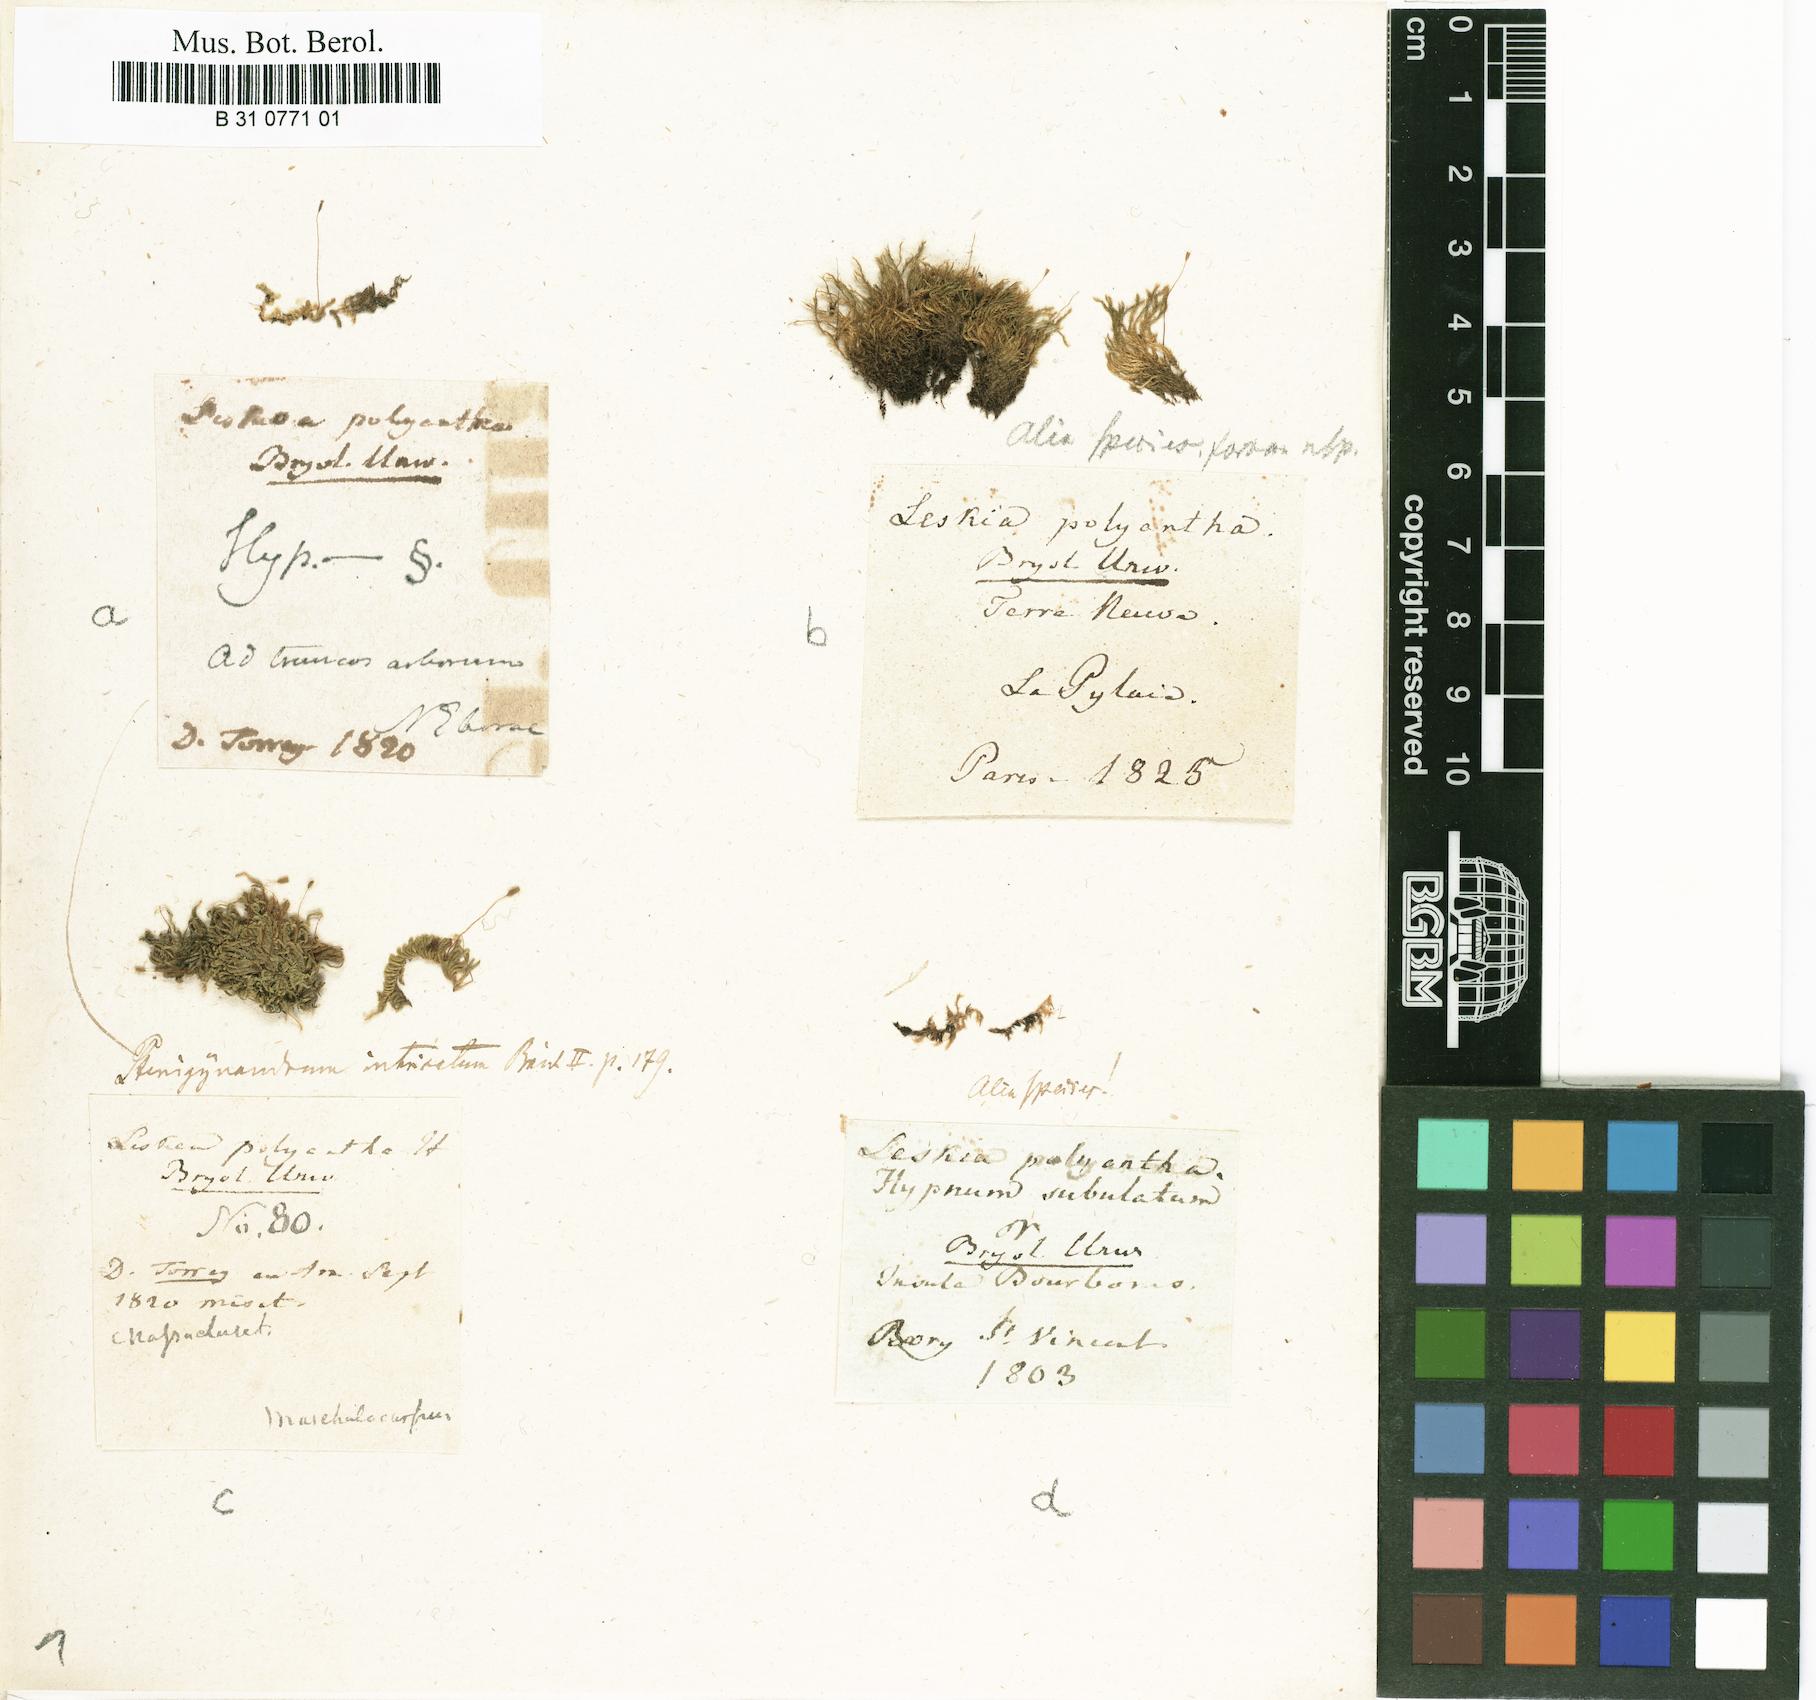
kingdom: Plantae
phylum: Bryophyta
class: Bryopsida
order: Hypnales
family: Pylaisiaceae
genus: Pylaisia
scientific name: Pylaisia polyantha
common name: Many-flowered leskea
